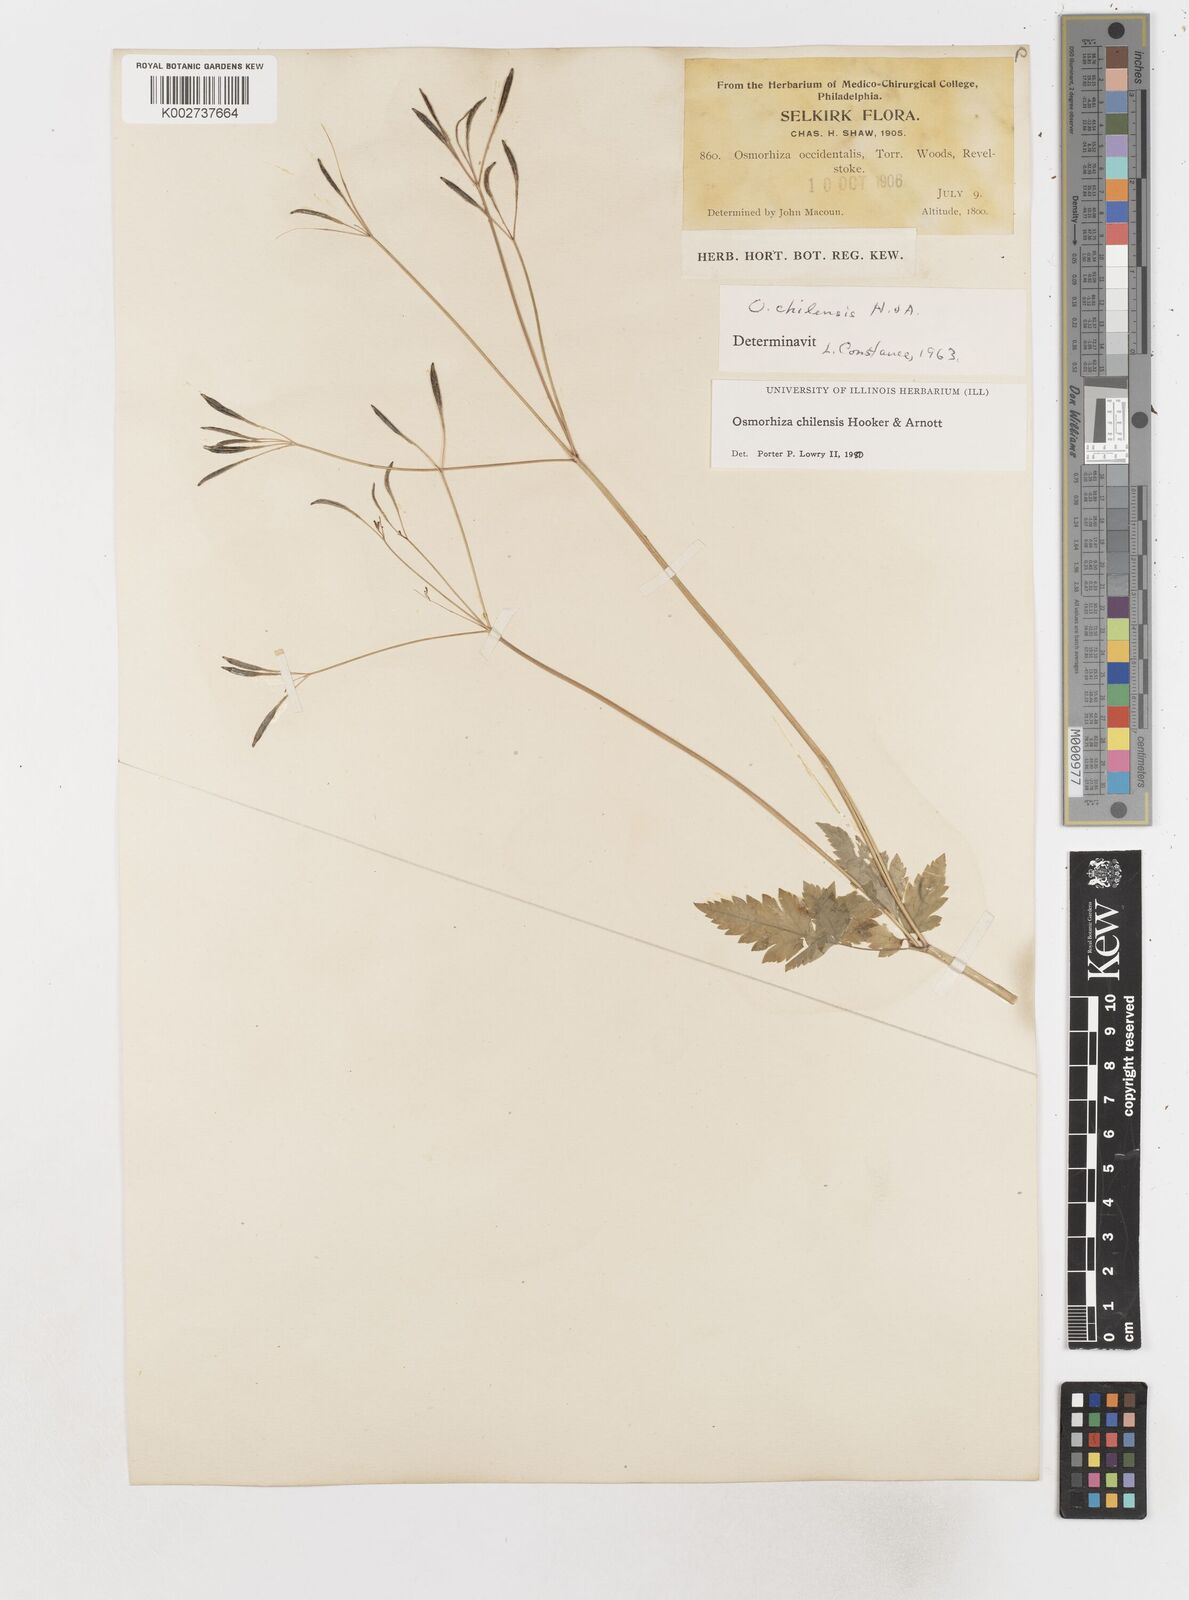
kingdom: Plantae
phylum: Tracheophyta
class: Magnoliopsida
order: Apiales
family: Apiaceae
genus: Osmorhiza
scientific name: Osmorhiza berteroi
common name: Mountain sweet cicely
